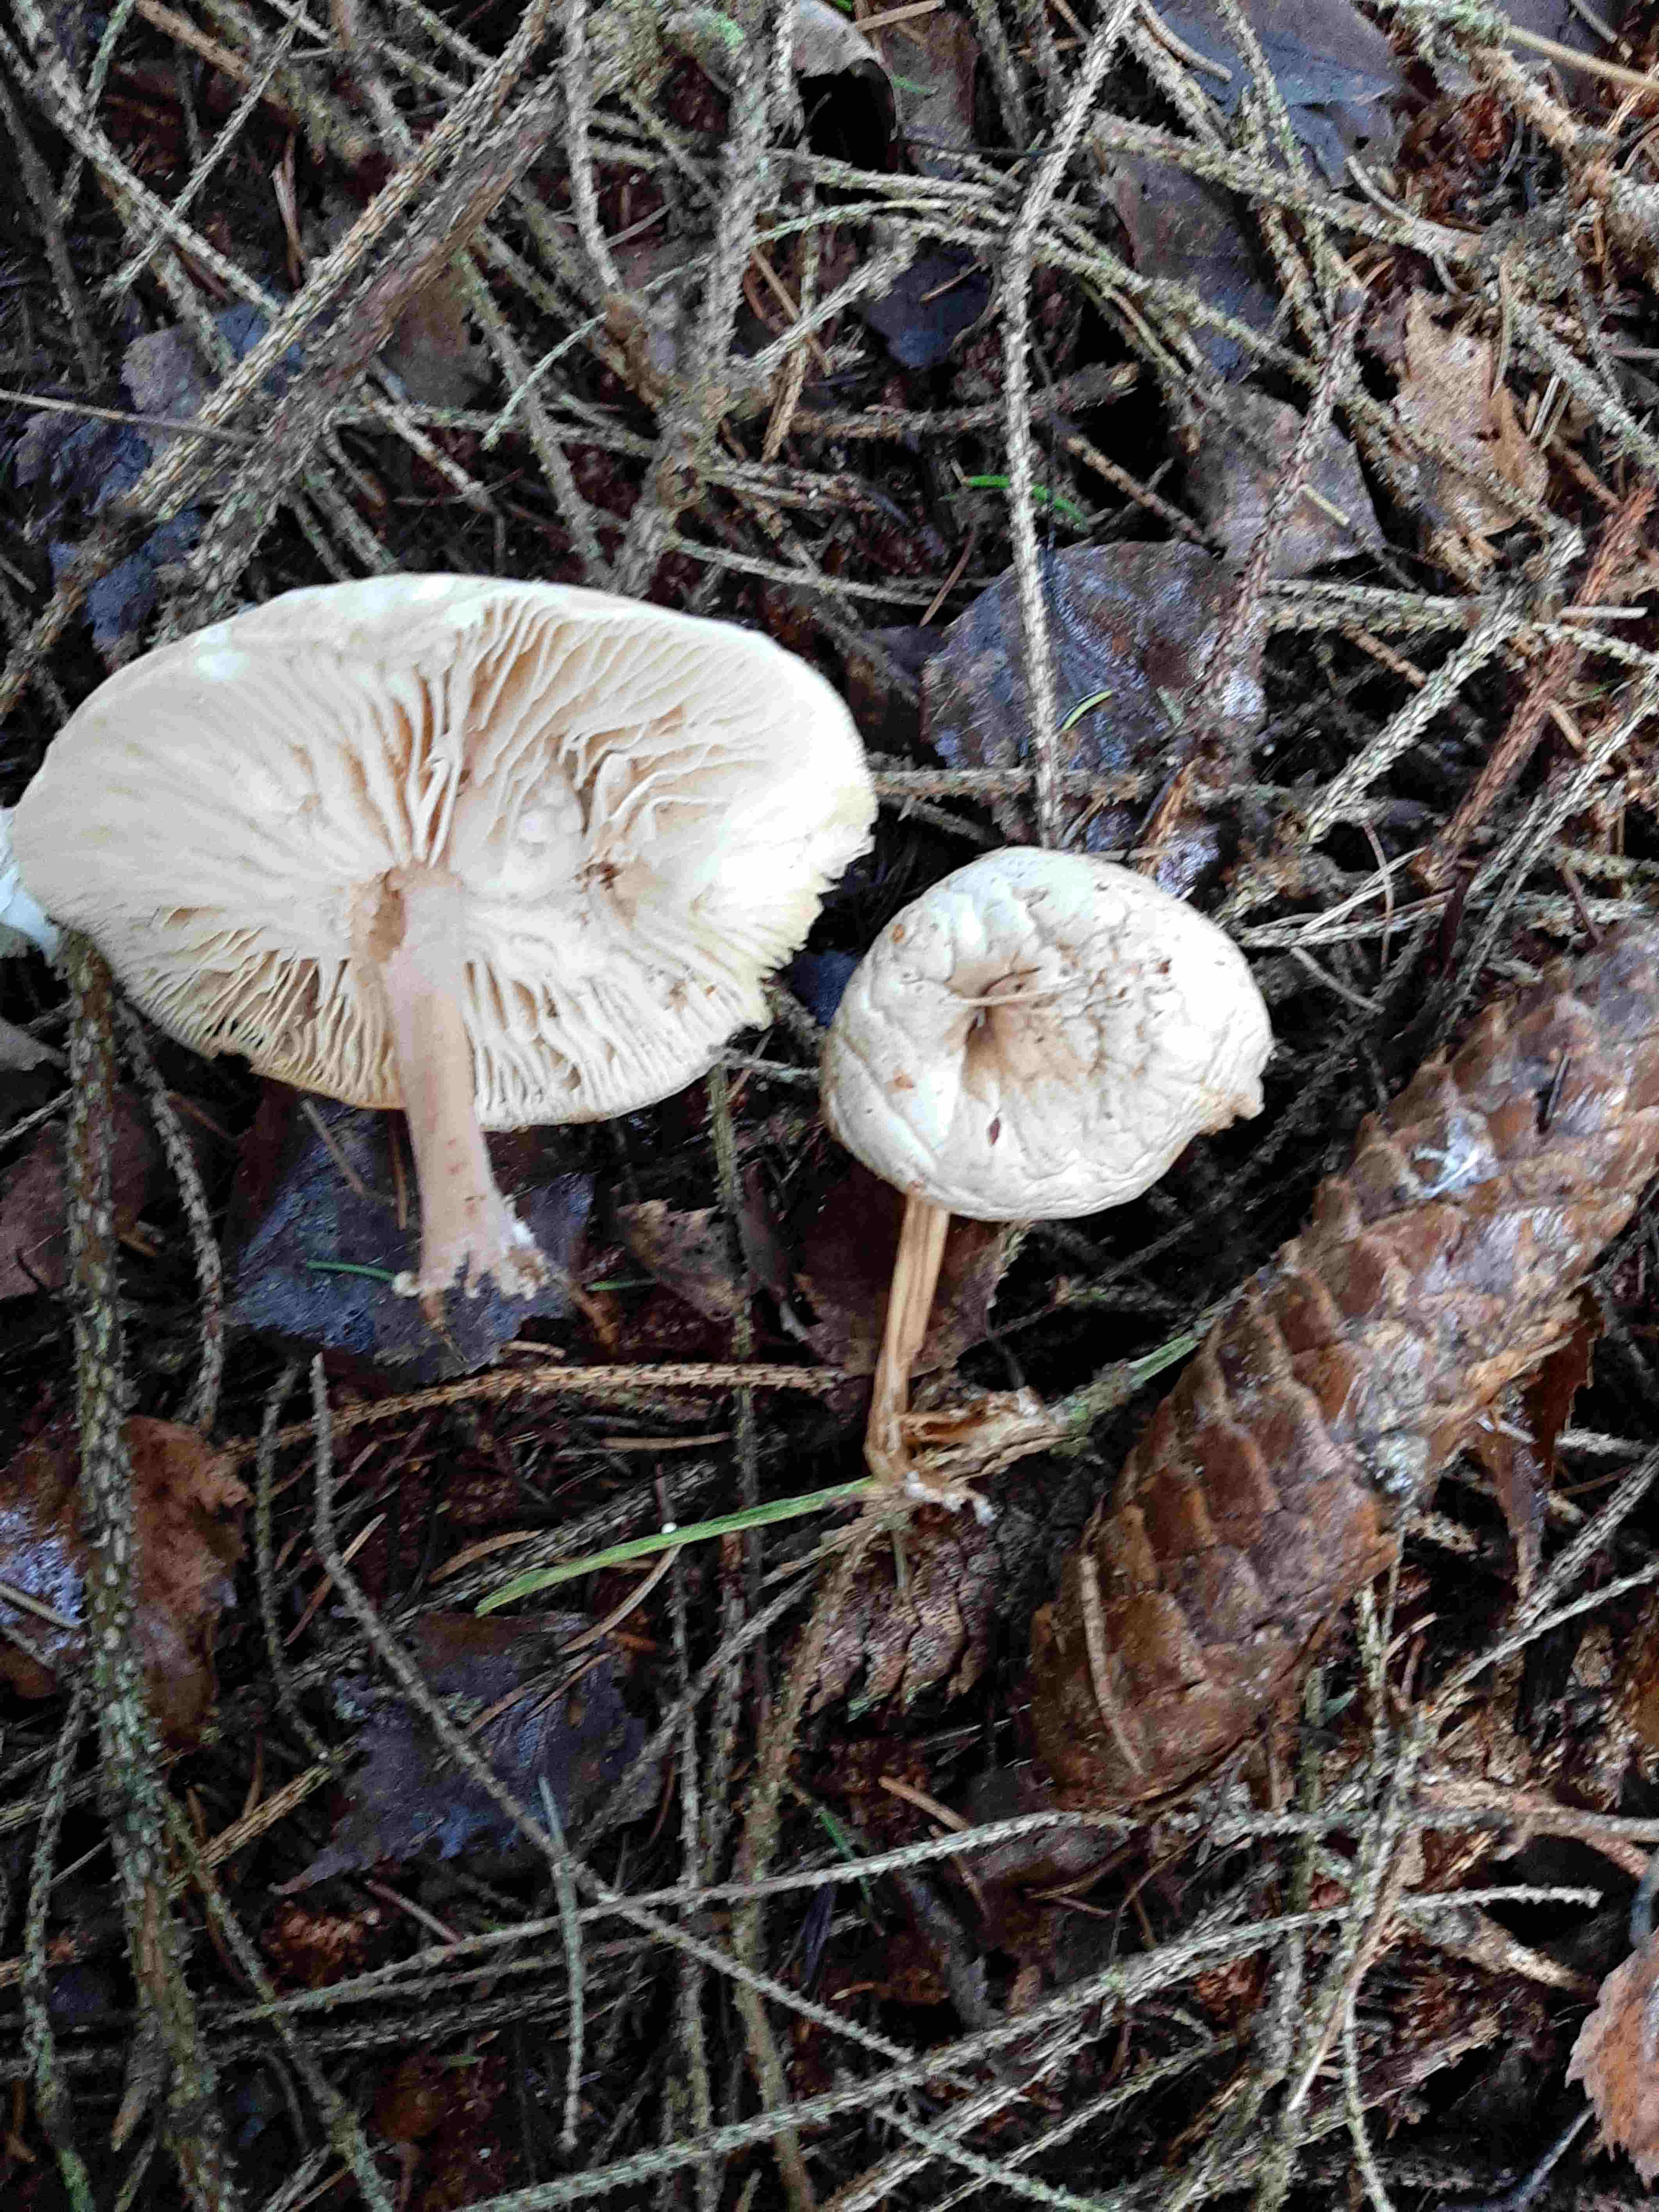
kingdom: Fungi
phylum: Basidiomycota
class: Agaricomycetes
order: Agaricales
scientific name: Agaricales
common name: champignonordenen
